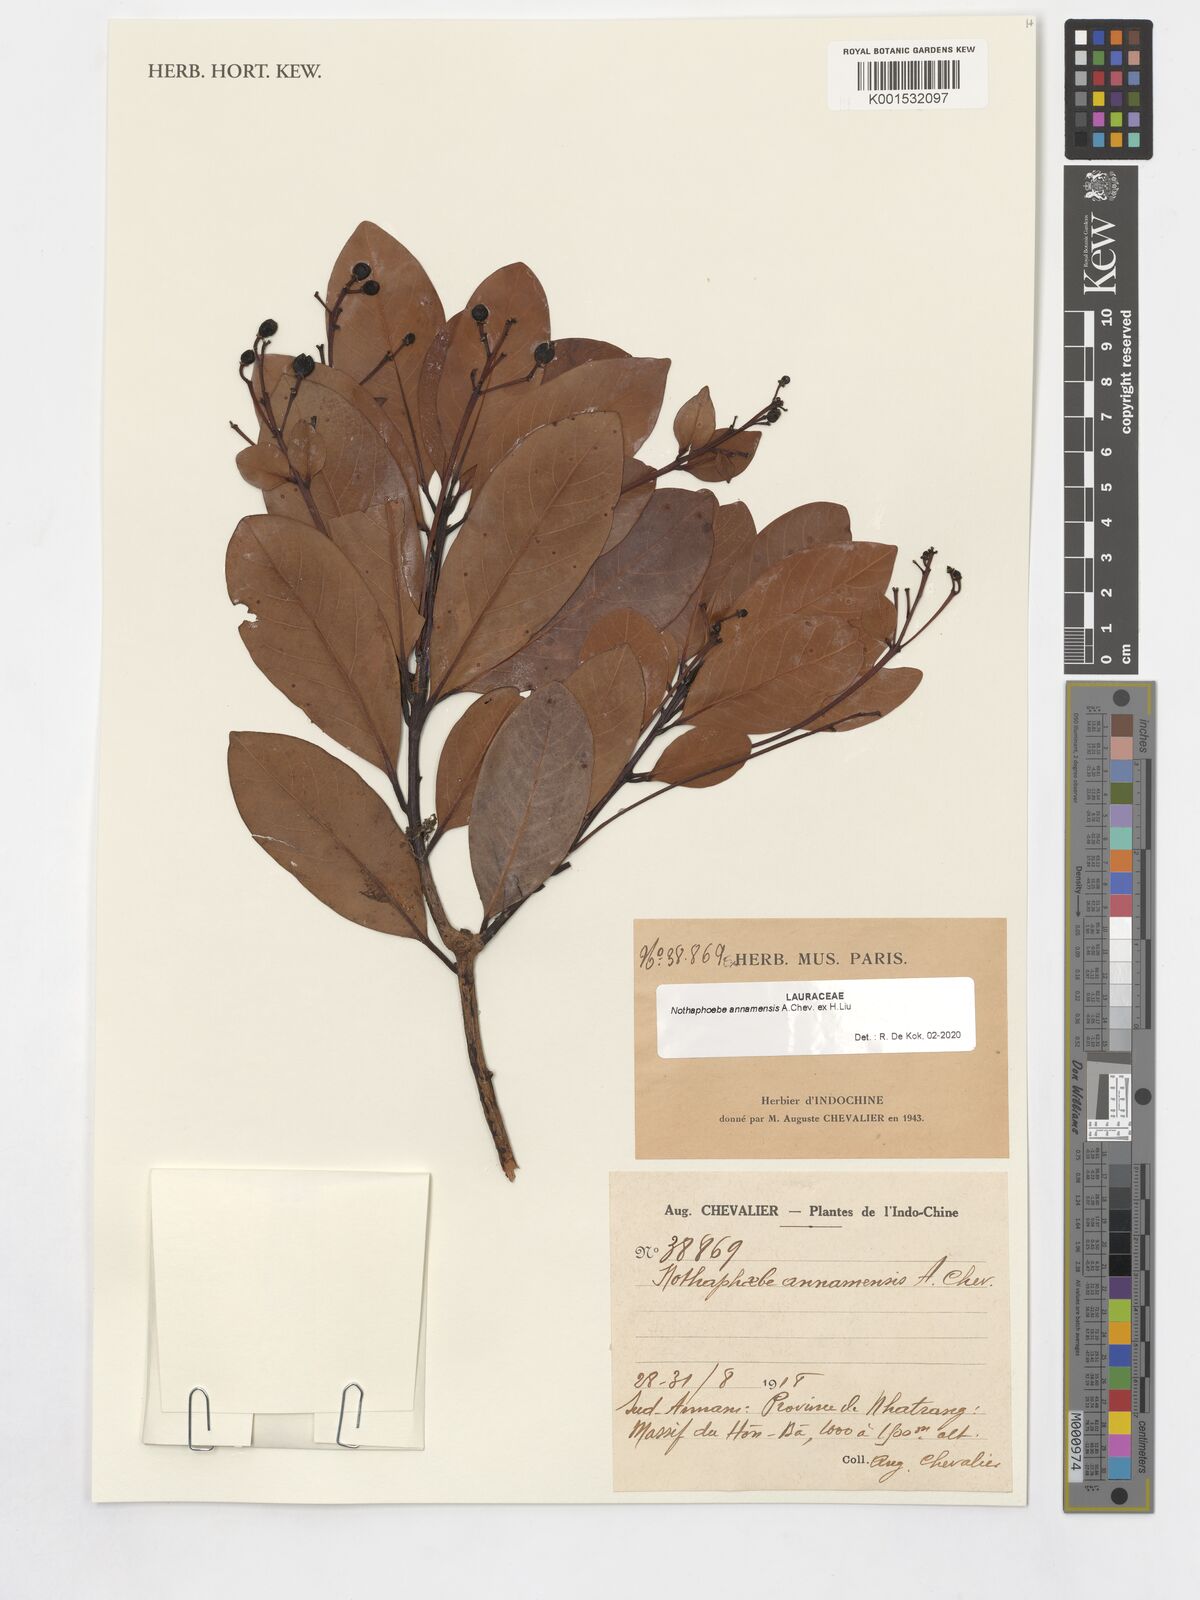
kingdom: Plantae
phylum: Tracheophyta
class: Magnoliopsida
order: Laurales
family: Lauraceae
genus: Nothaphoebe
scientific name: Nothaphoebe annamensis
